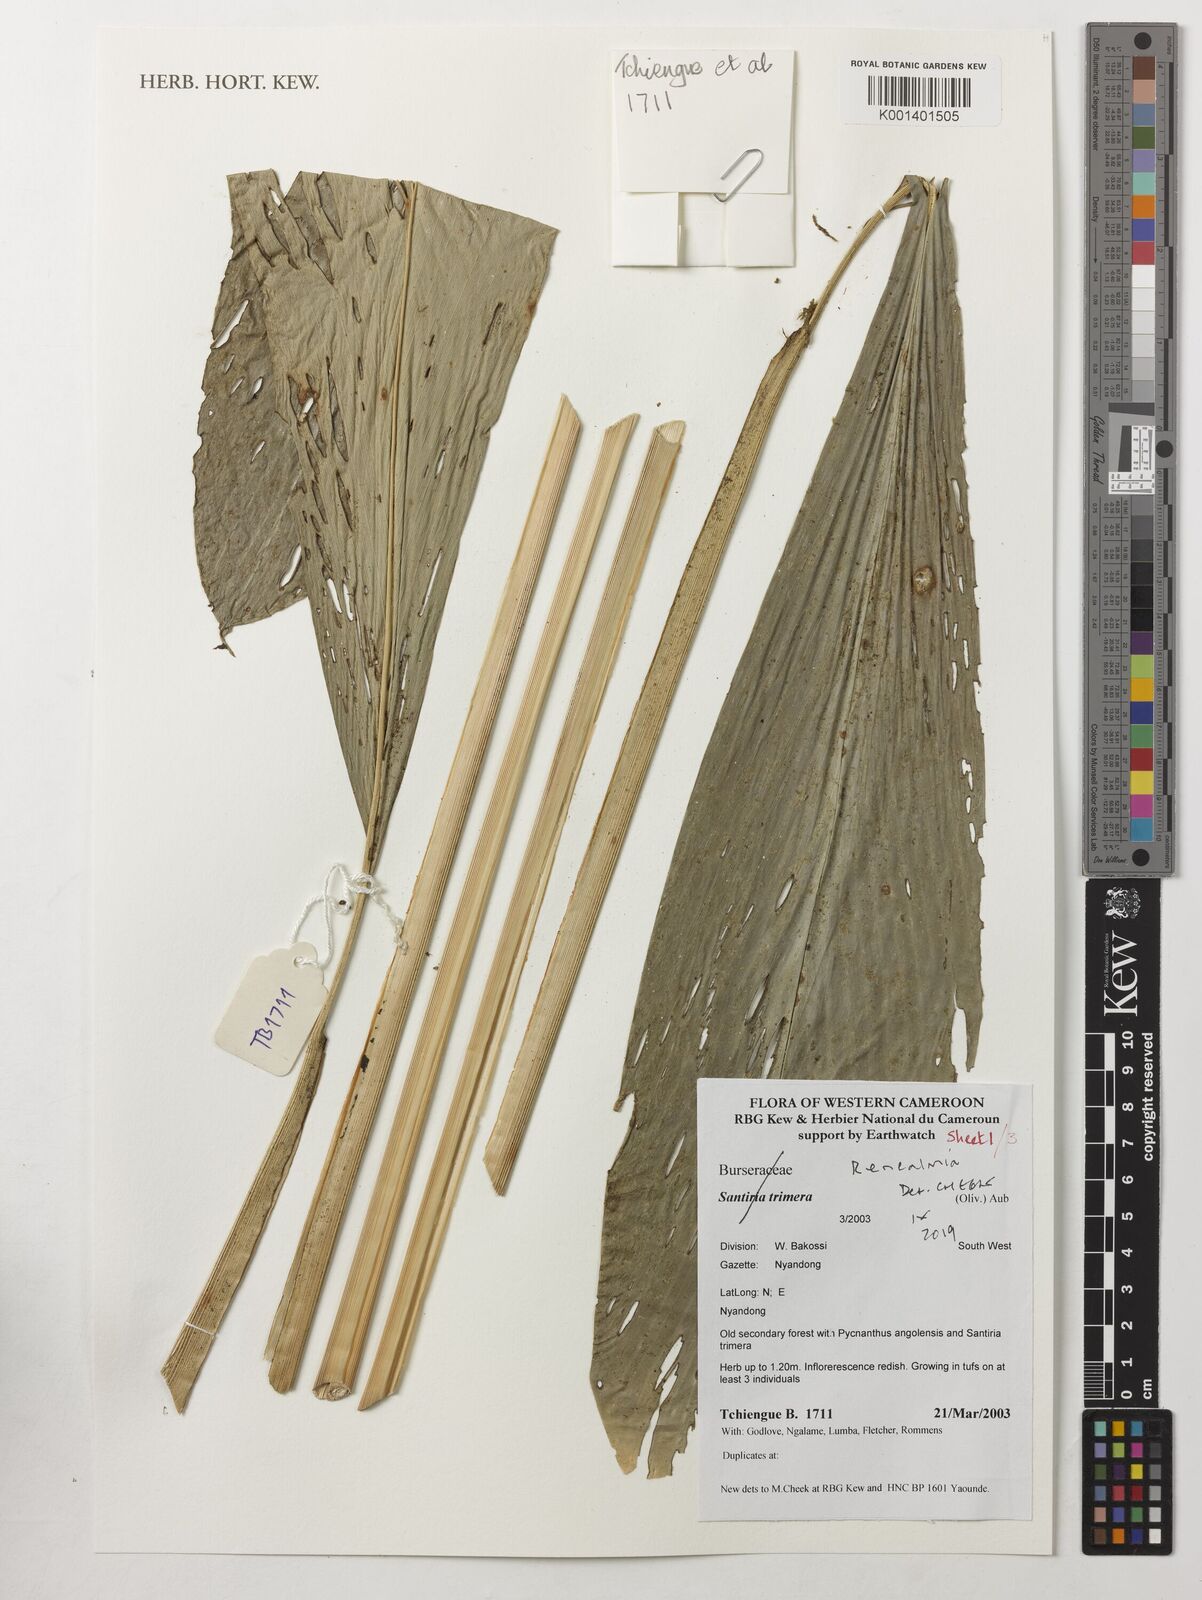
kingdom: Plantae
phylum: Tracheophyta
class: Liliopsida
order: Zingiberales
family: Zingiberaceae
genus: Renealmia
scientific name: Renealmia
